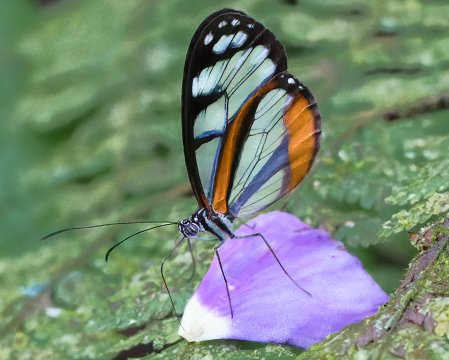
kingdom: Animalia
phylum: Arthropoda
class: Insecta
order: Lepidoptera
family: Nymphalidae
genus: Oleria
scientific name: Oleria amalda
